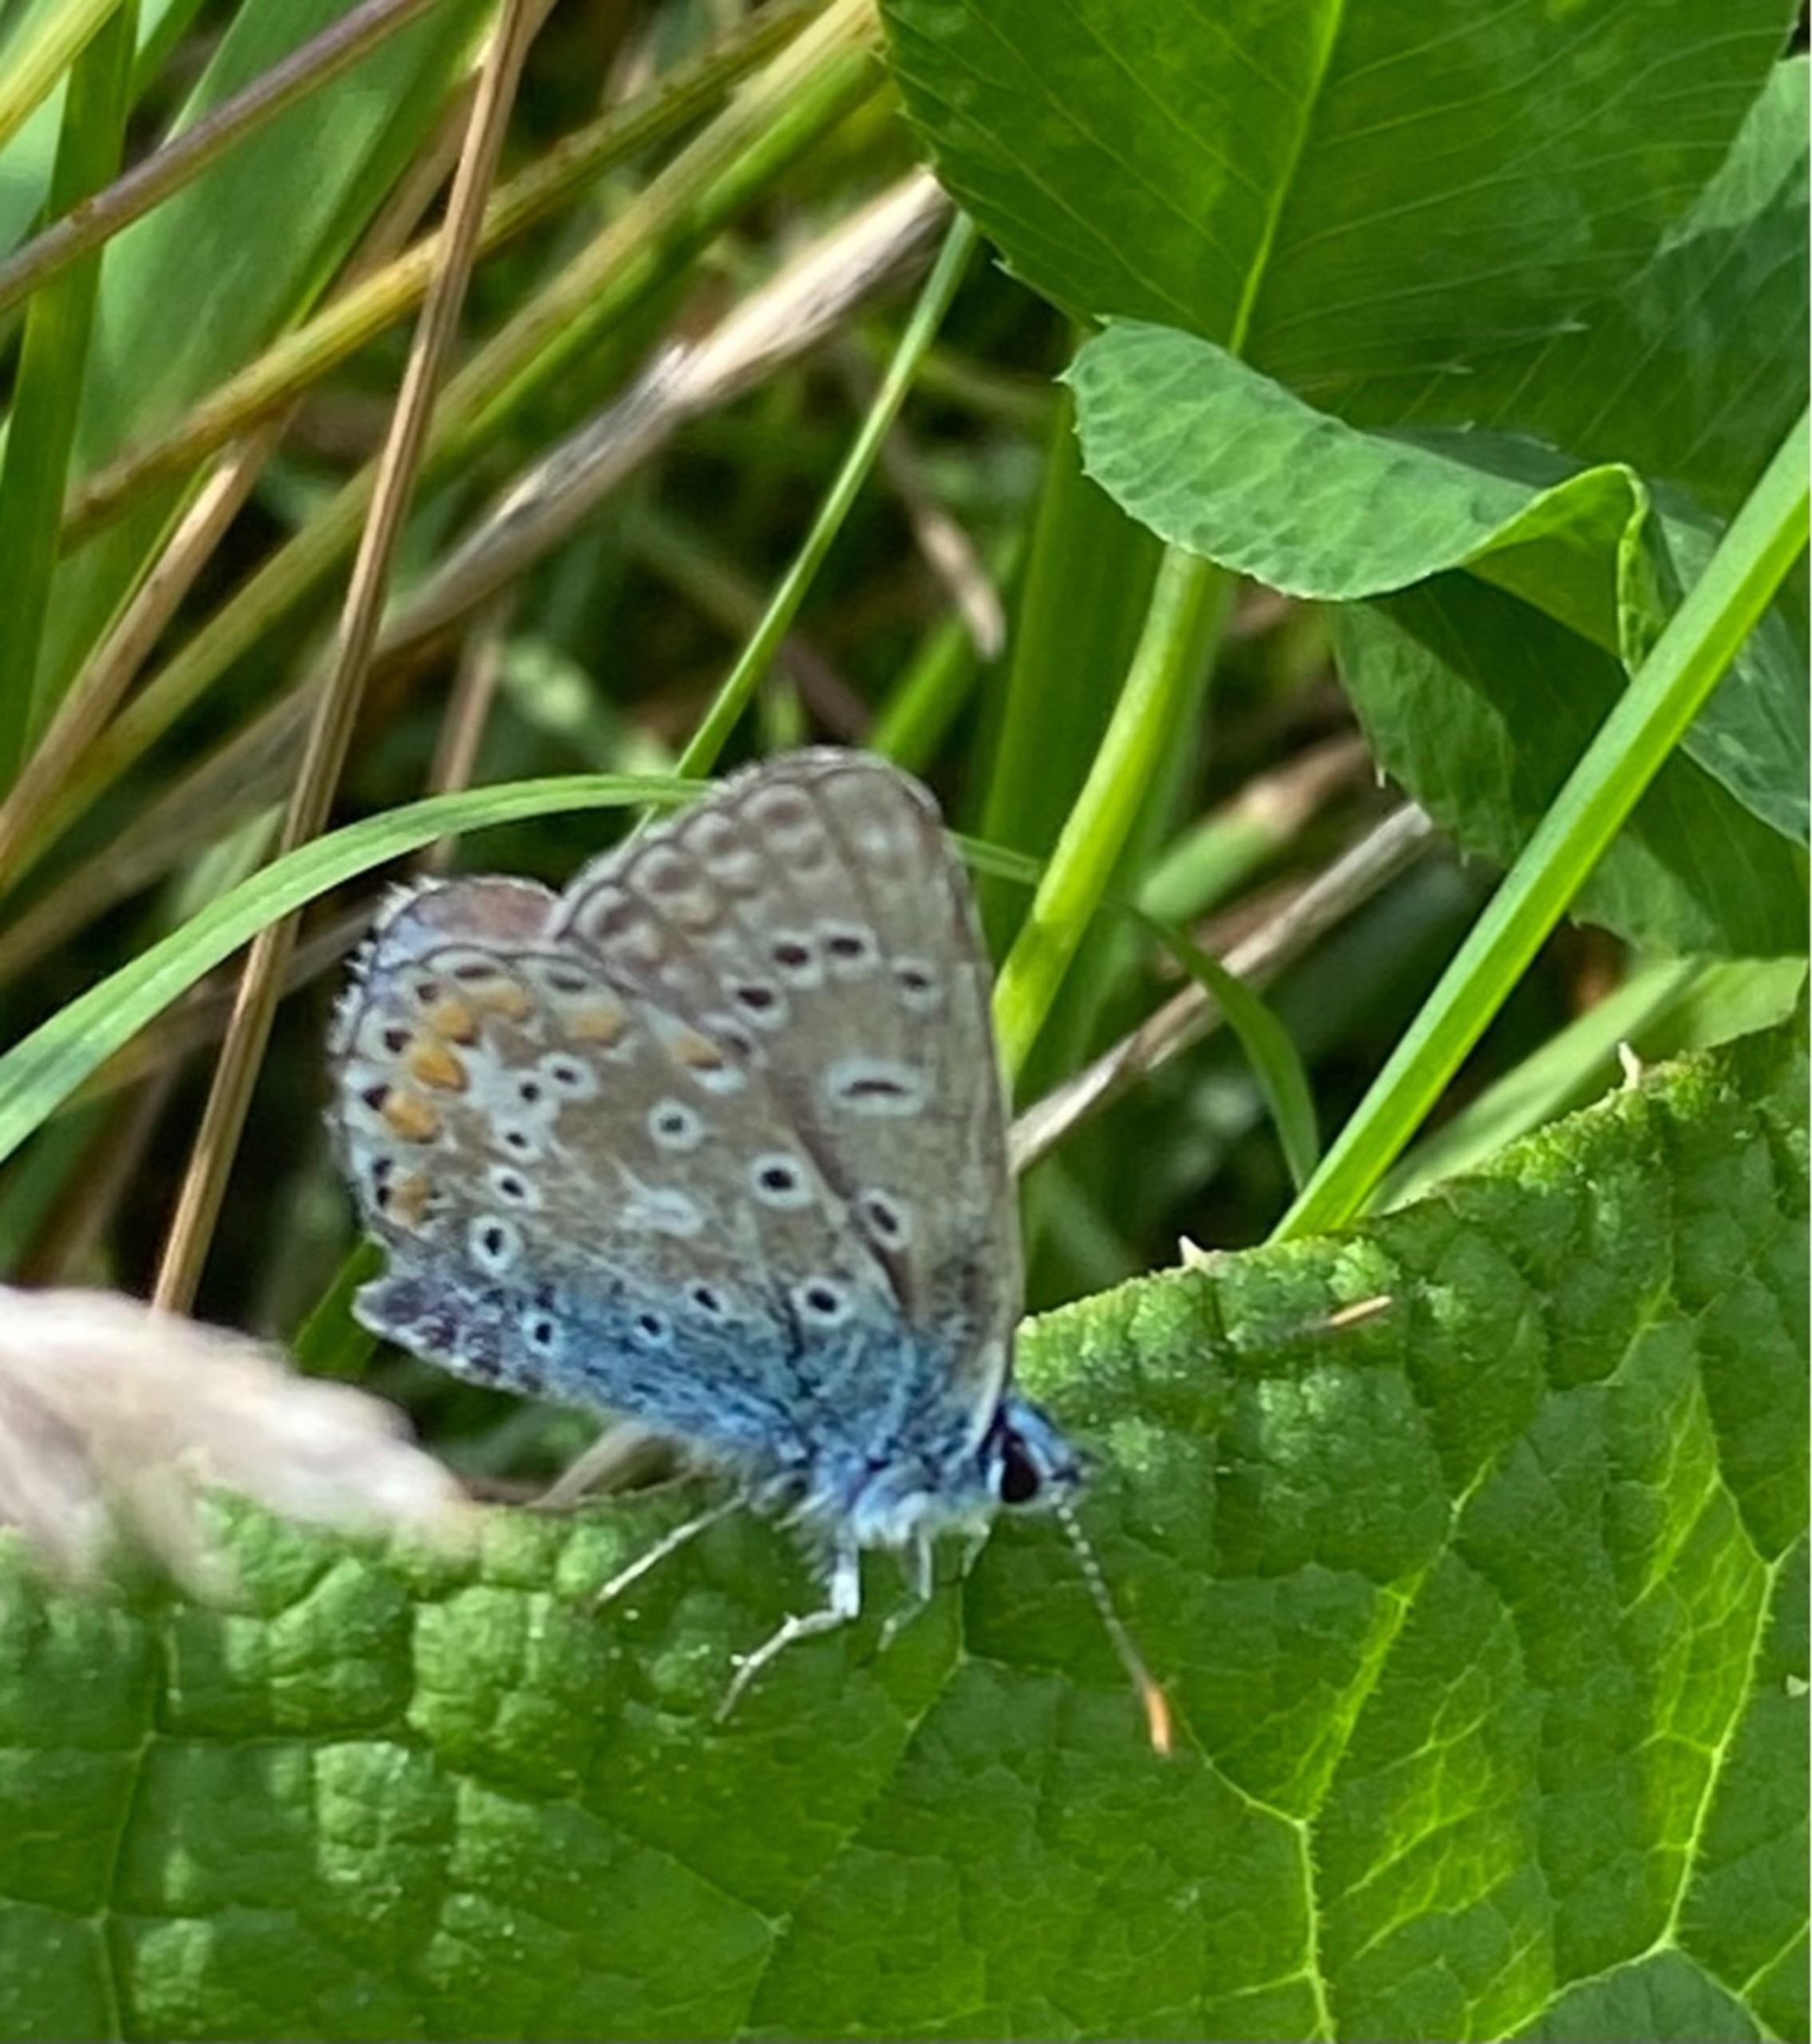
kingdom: Animalia
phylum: Arthropoda
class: Insecta
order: Lepidoptera
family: Lycaenidae
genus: Polyommatus
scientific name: Polyommatus icarus
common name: Almindelig blåfugl
